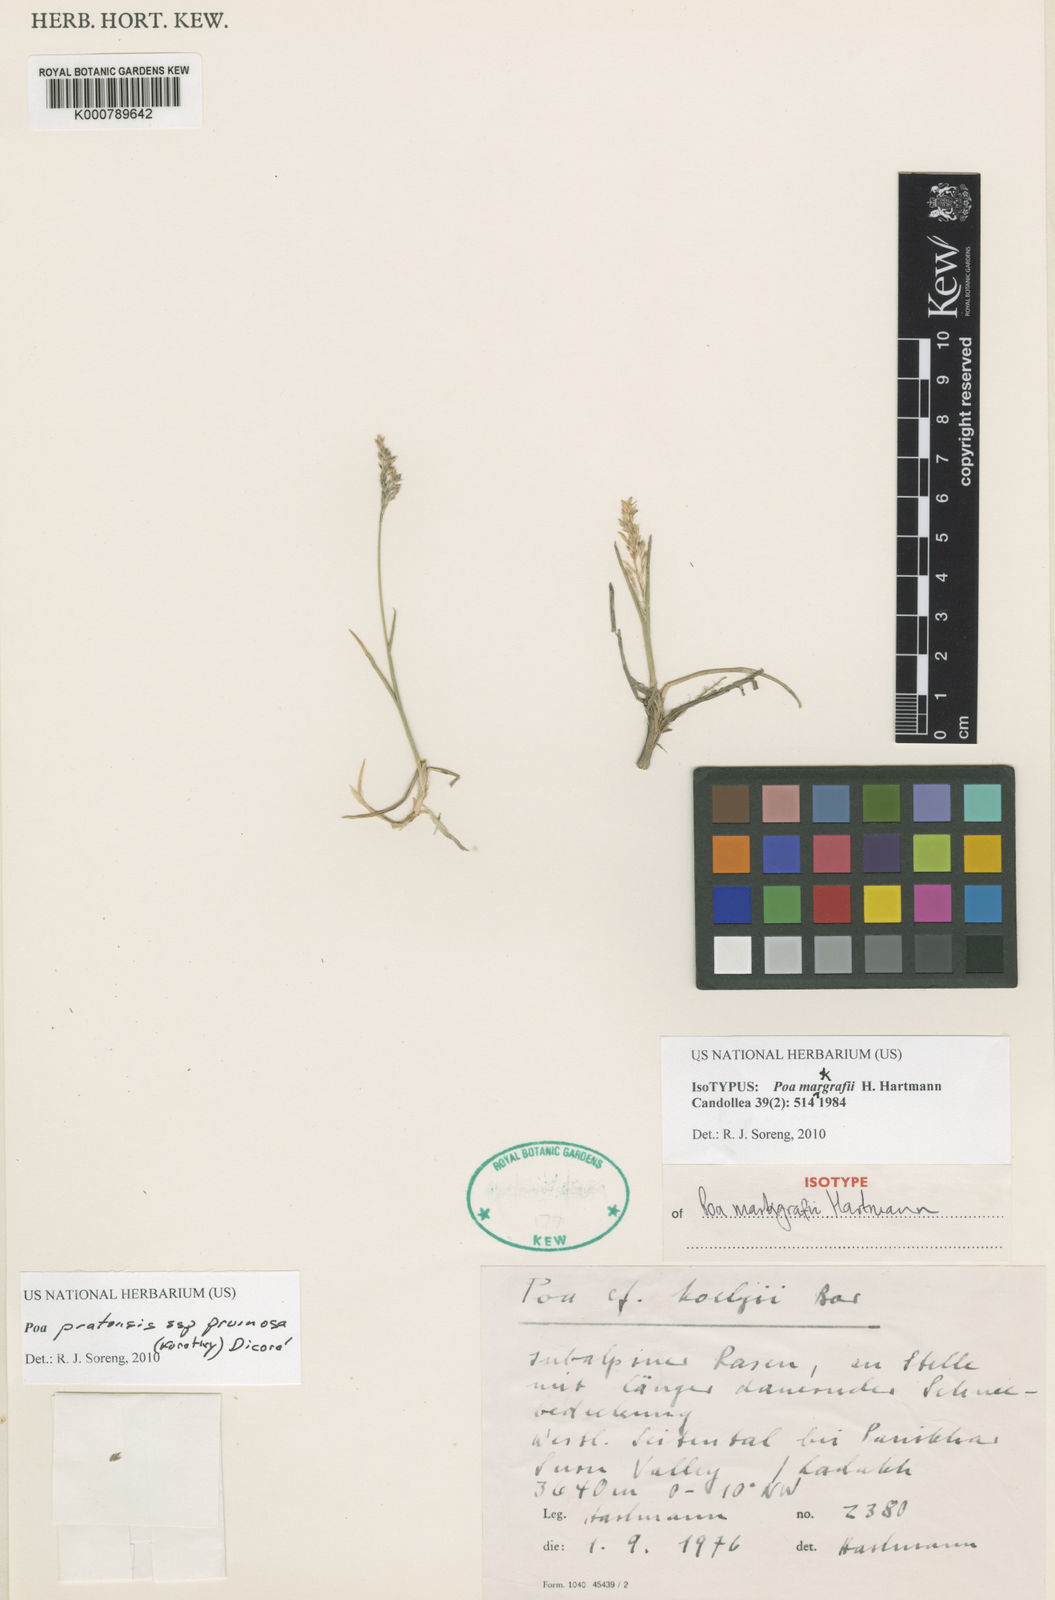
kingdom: Plantae
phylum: Tracheophyta
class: Liliopsida
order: Poales
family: Poaceae
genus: Poa
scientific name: Poa pratensis
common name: Kentucky bluegrass
